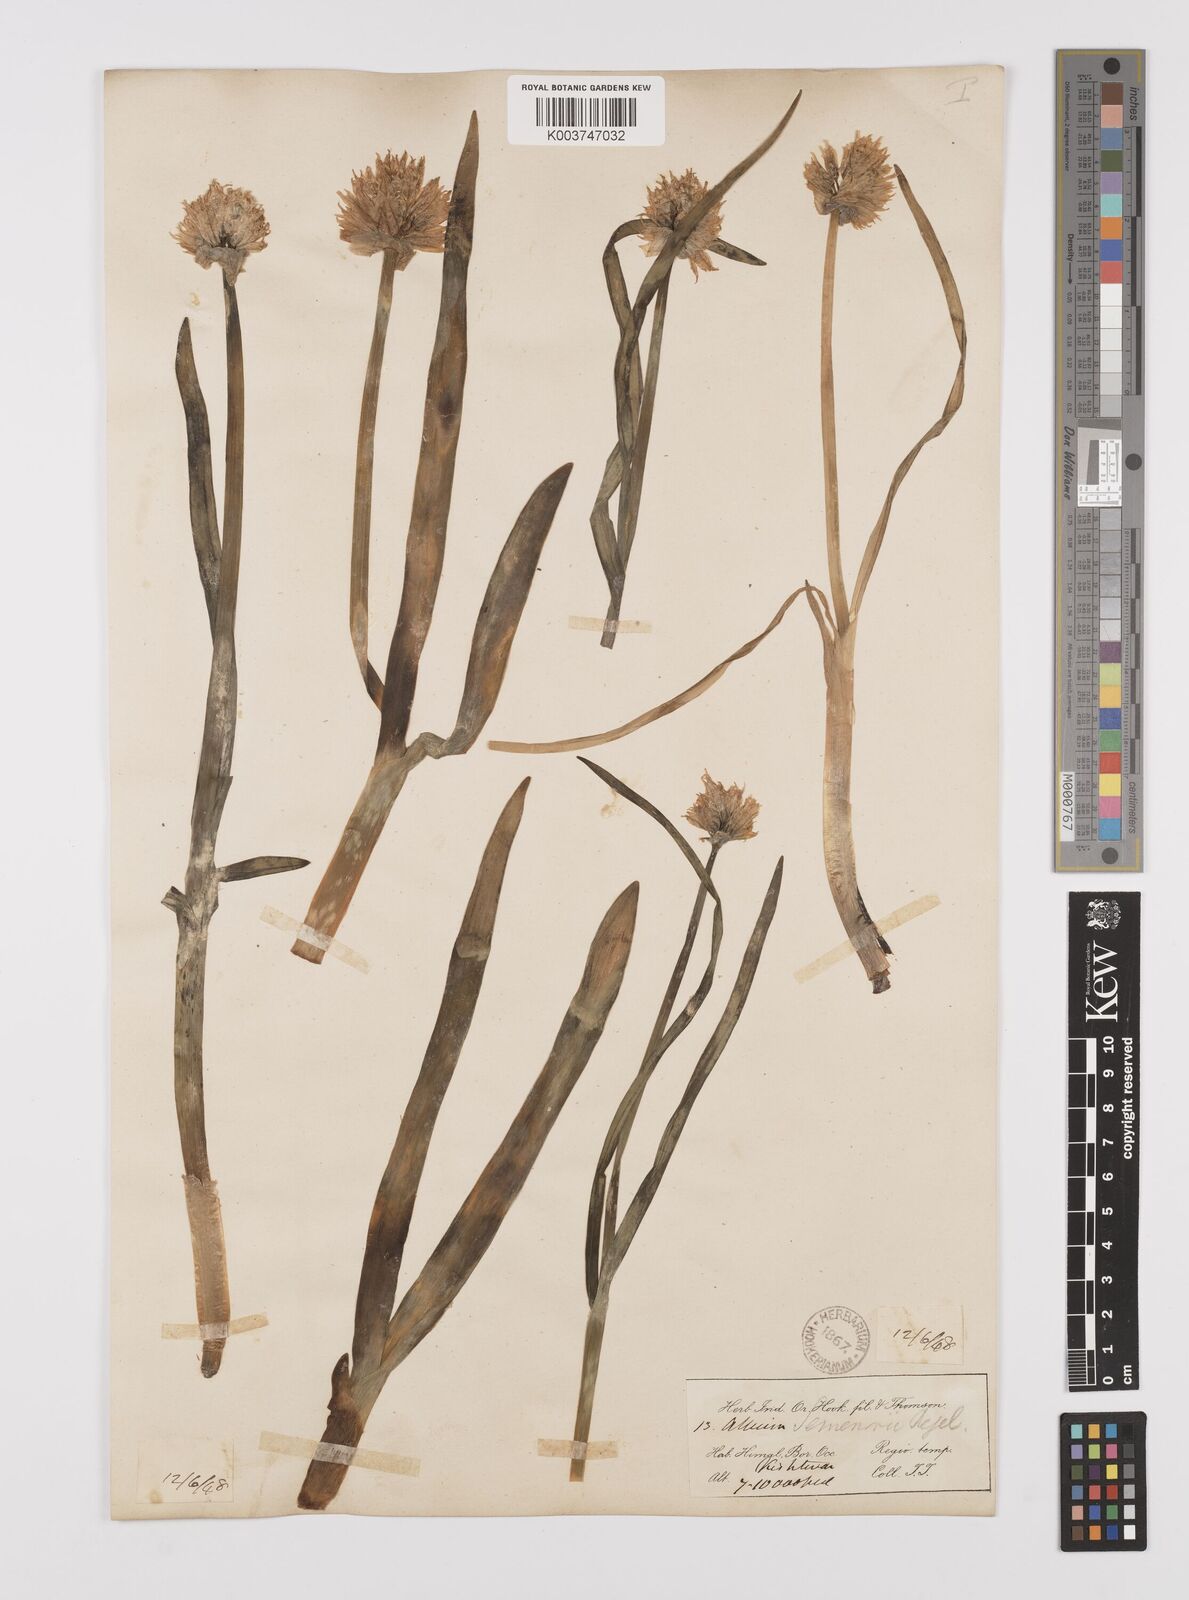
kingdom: Plantae
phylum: Tracheophyta
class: Liliopsida
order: Asparagales
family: Amaryllidaceae
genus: Allium
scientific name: Allium semenovii
